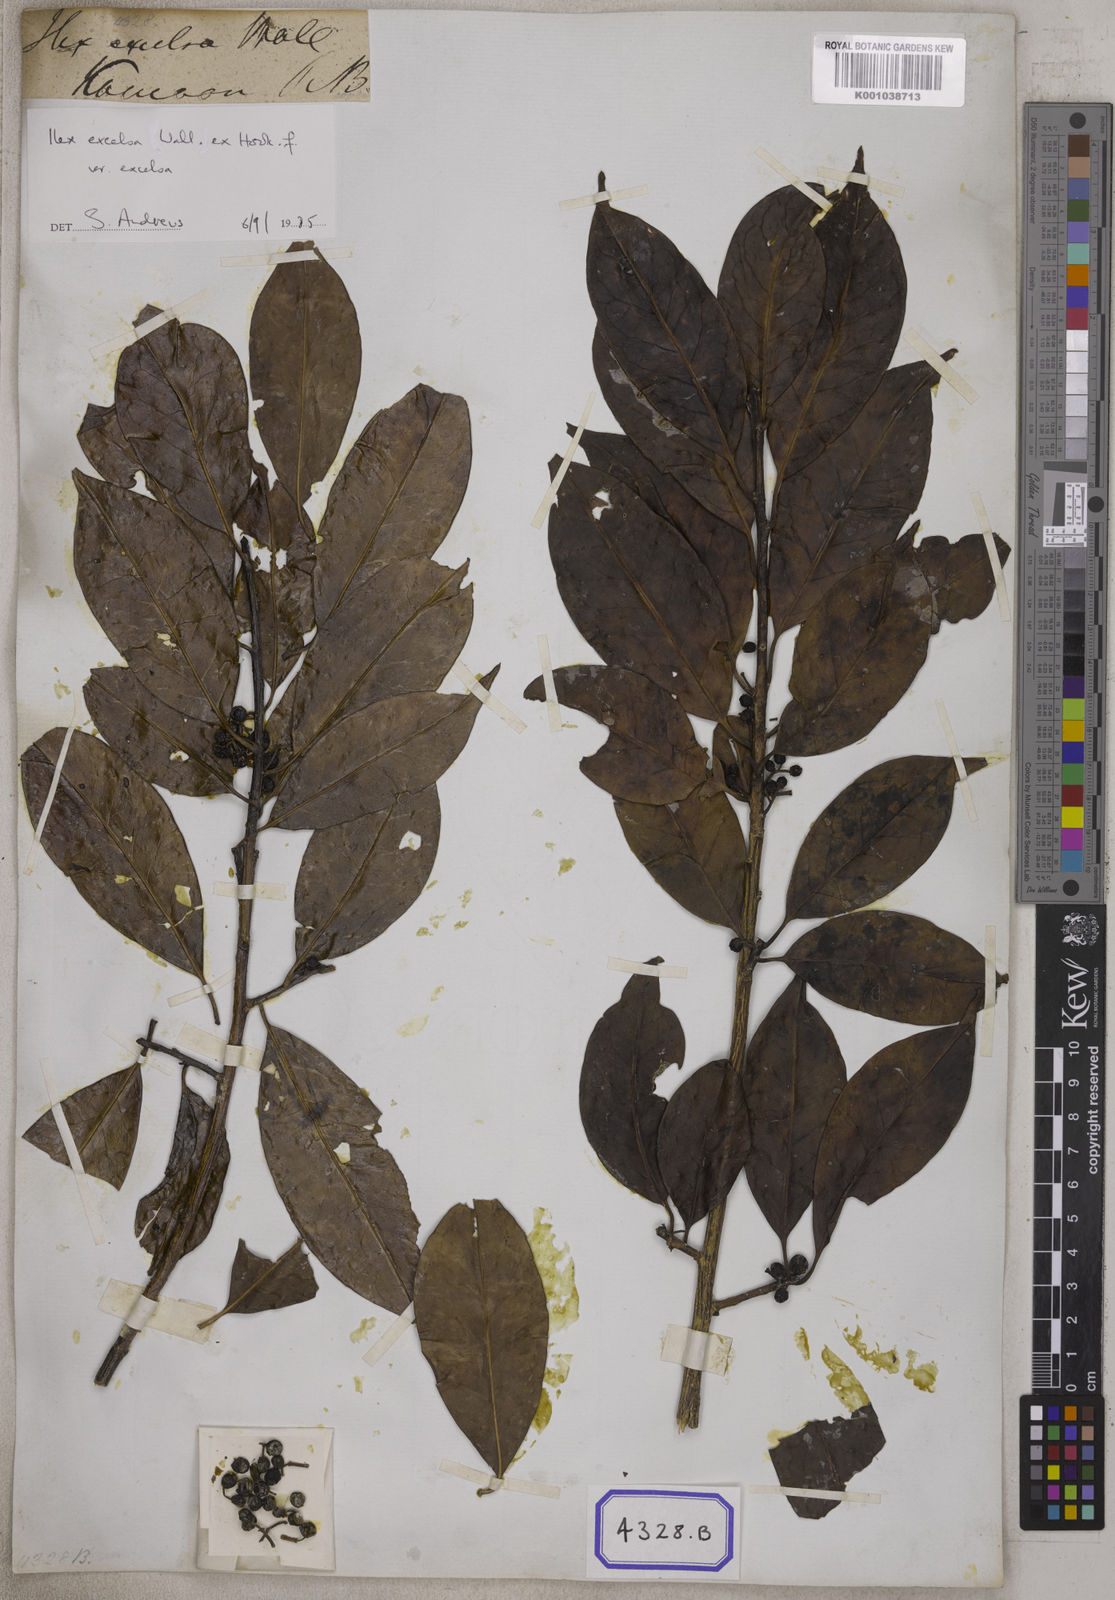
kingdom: Plantae
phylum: Tracheophyta
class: Magnoliopsida
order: Aquifoliales
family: Aquifoliaceae
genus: Ilex
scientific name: Ilex excelsa
